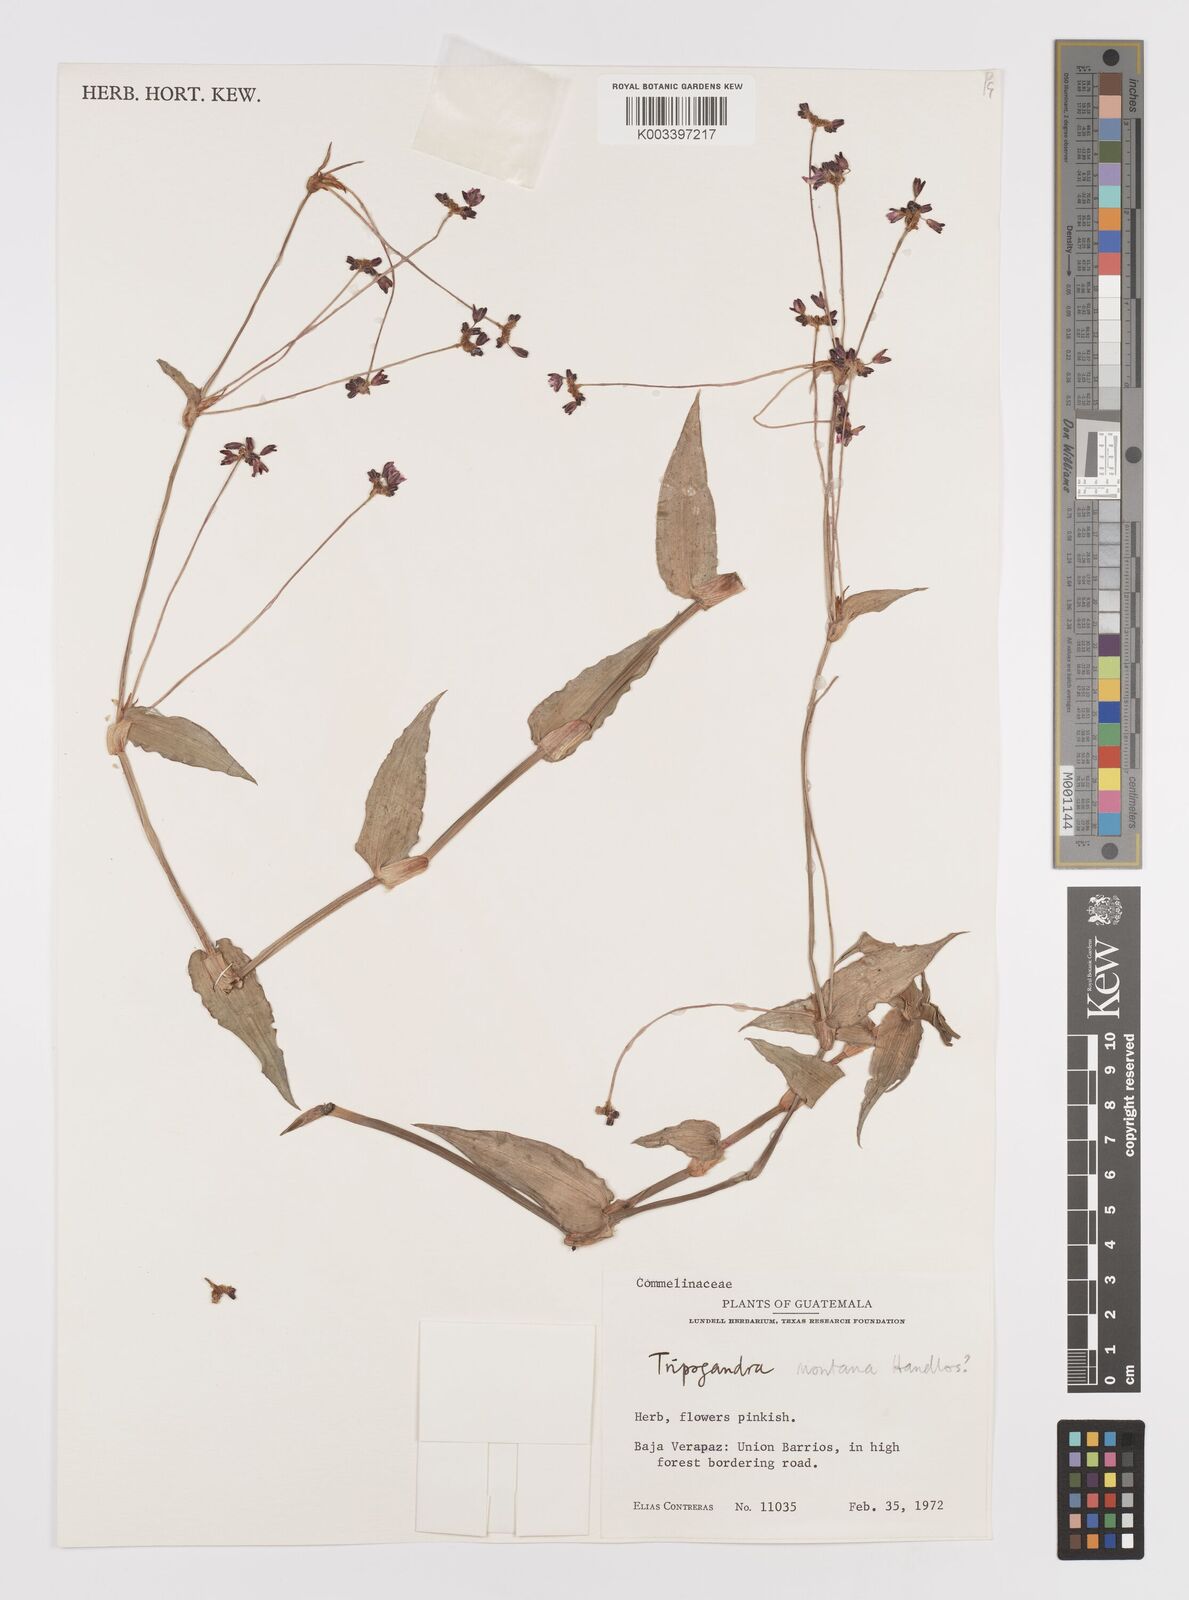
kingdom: Plantae
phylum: Tracheophyta
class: Liliopsida
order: Commelinales
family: Commelinaceae
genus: Callisia
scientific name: Callisia diuretica
